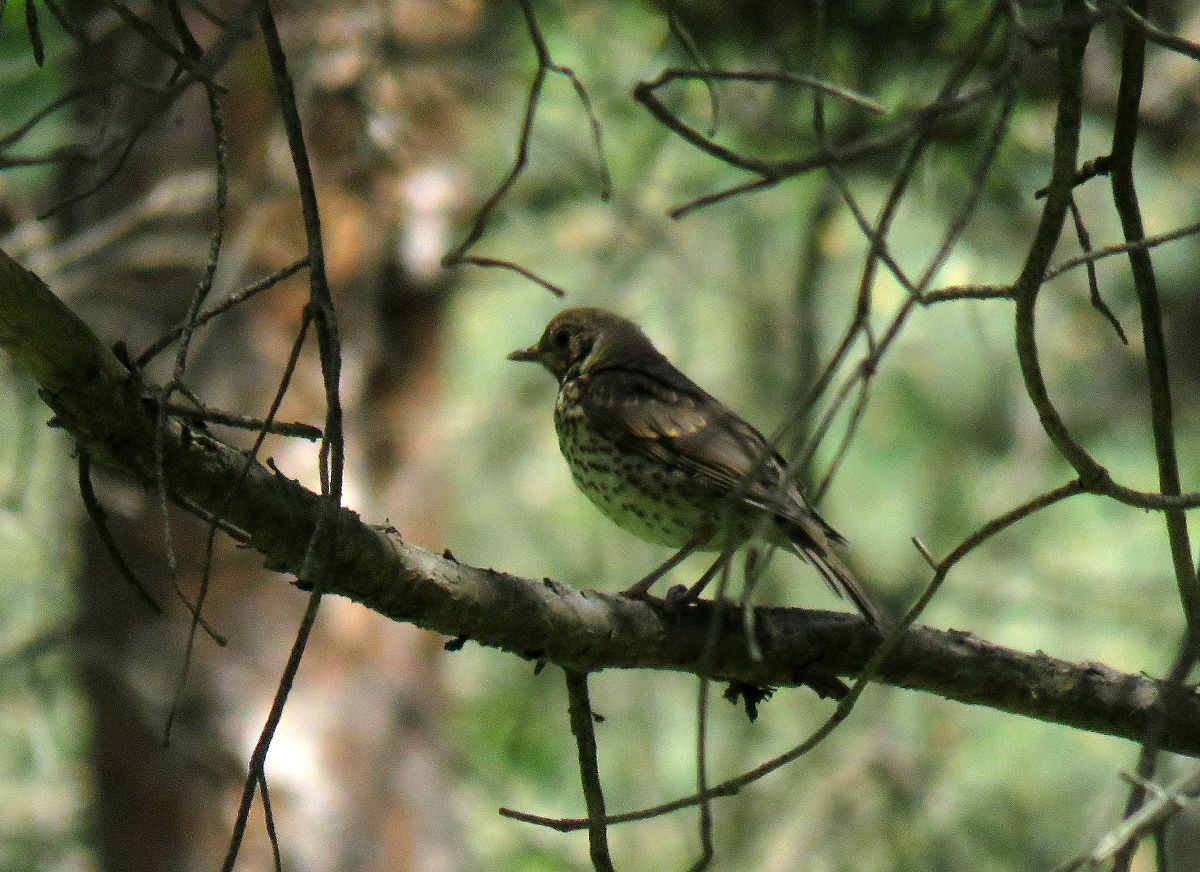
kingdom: Animalia
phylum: Chordata
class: Aves
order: Passeriformes
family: Turdidae
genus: Turdus
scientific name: Turdus philomelos
